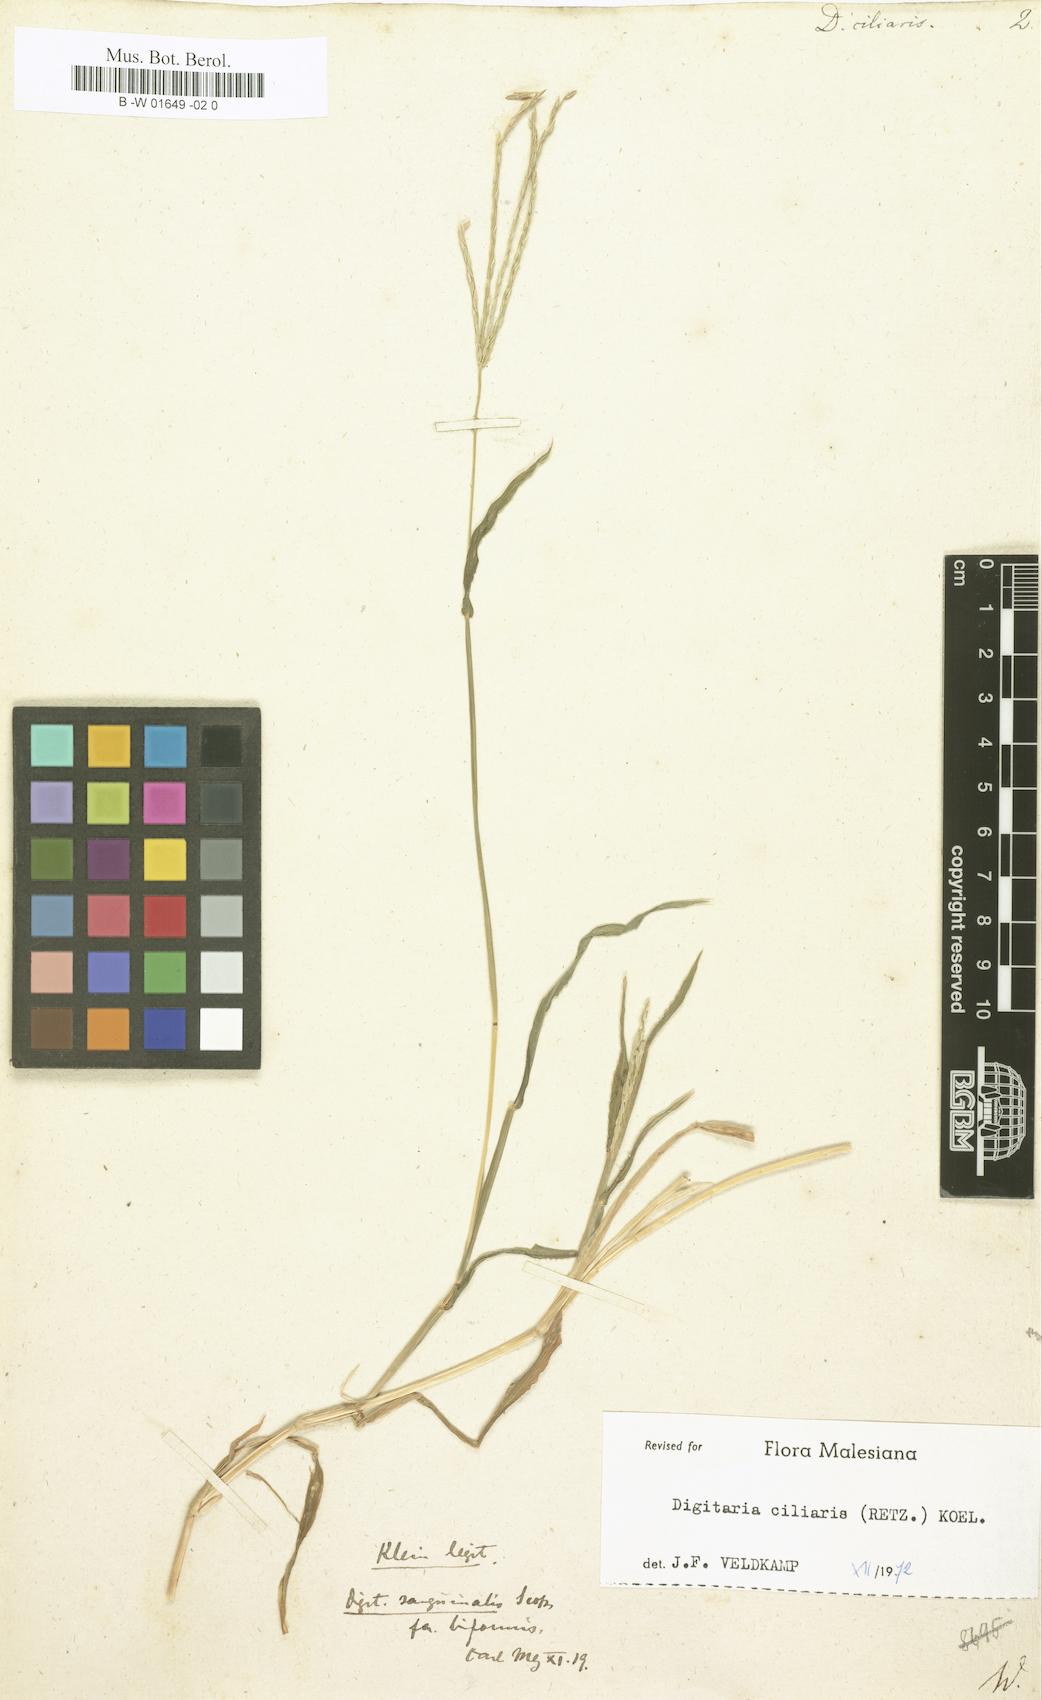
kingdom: Plantae
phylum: Tracheophyta
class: Liliopsida
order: Poales
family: Poaceae
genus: Digitaria
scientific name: Digitaria ciliaris
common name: Tropical finger-grass
